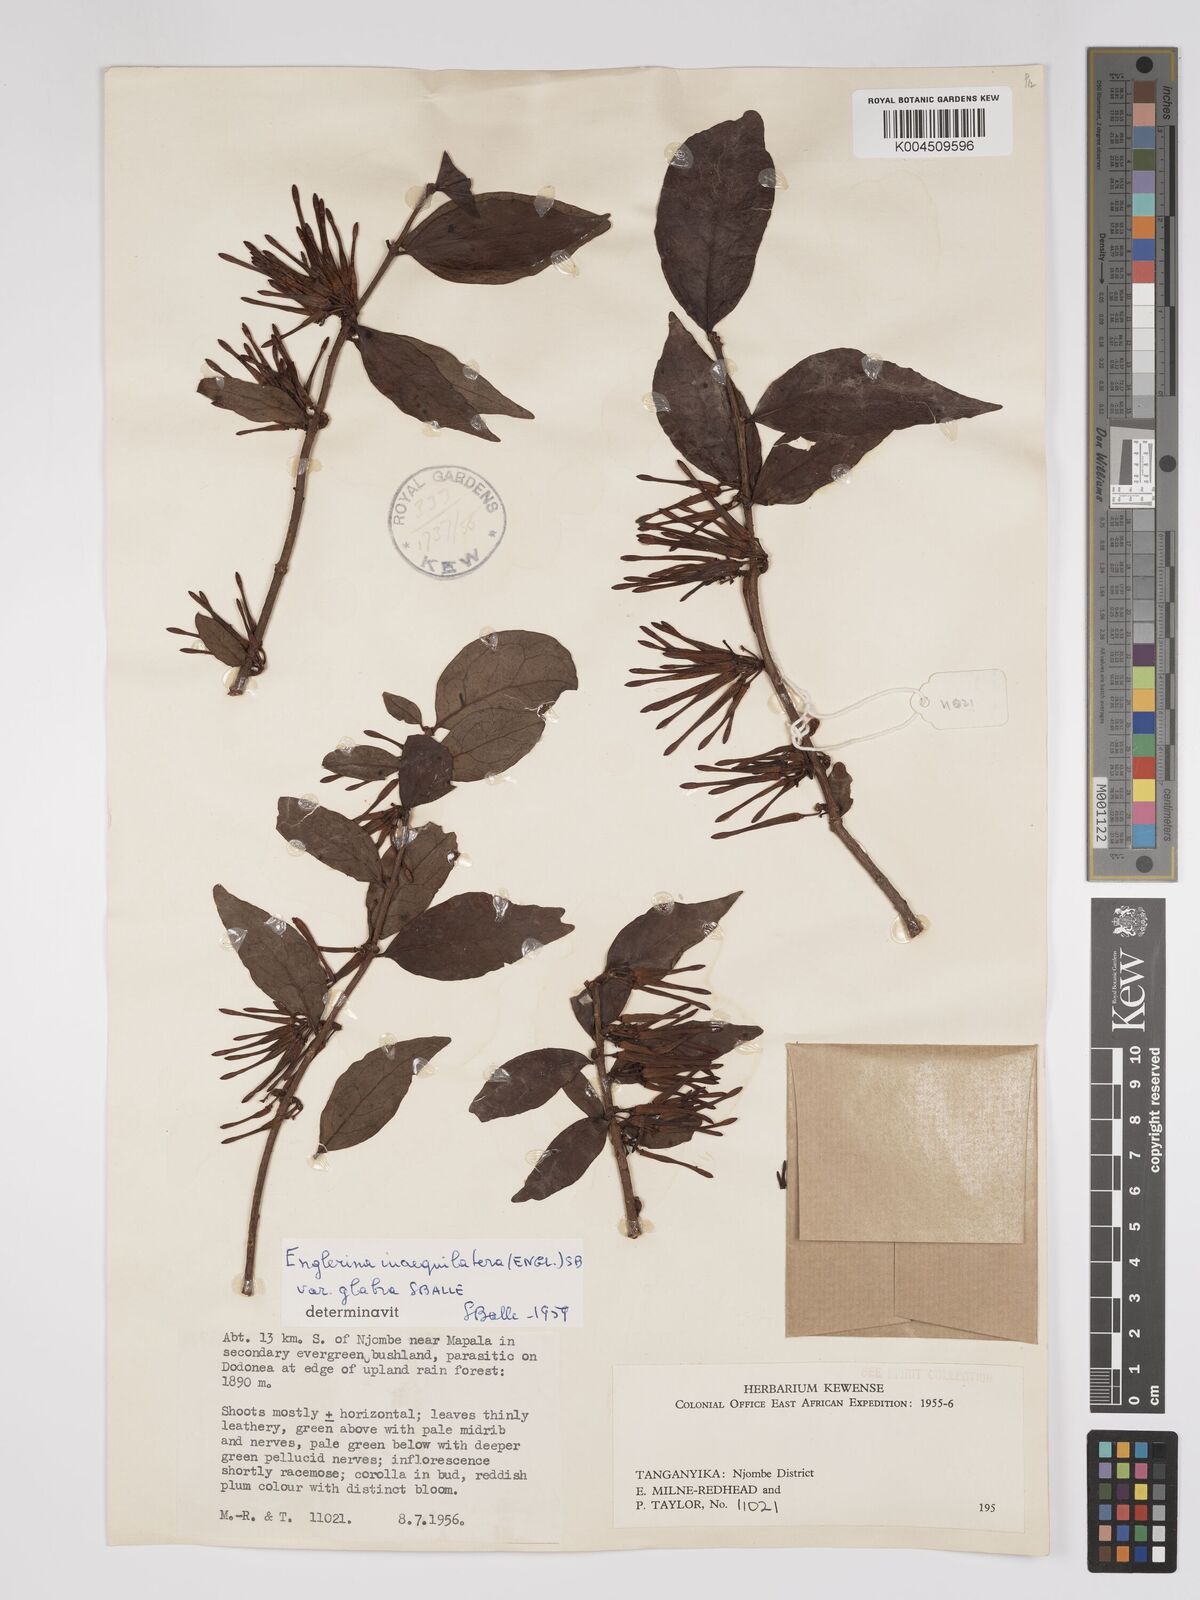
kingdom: Plantae
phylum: Tracheophyta
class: Magnoliopsida
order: Santalales
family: Loranthaceae
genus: Englerina
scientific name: Englerina inaequilatera
